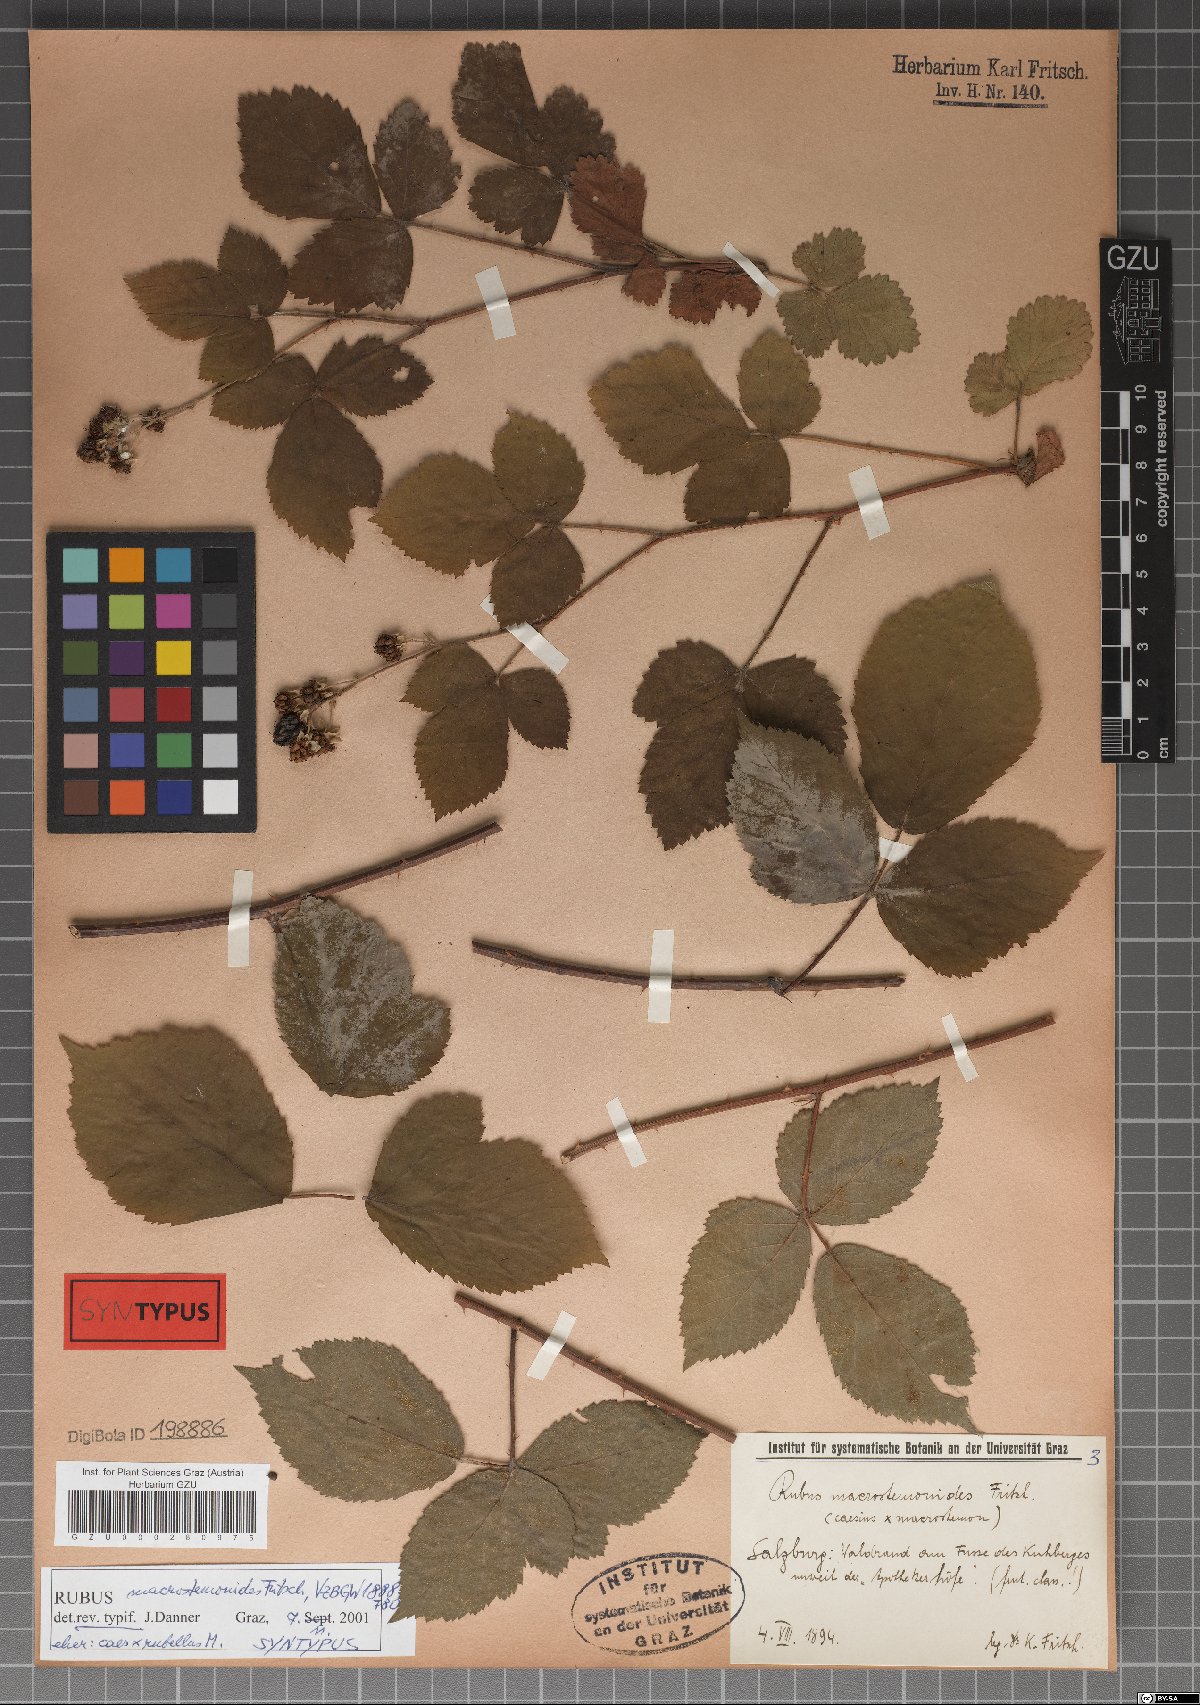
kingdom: Plantae
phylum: Tracheophyta
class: Magnoliopsida
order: Rosales
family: Rosaceae
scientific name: Rosaceae
